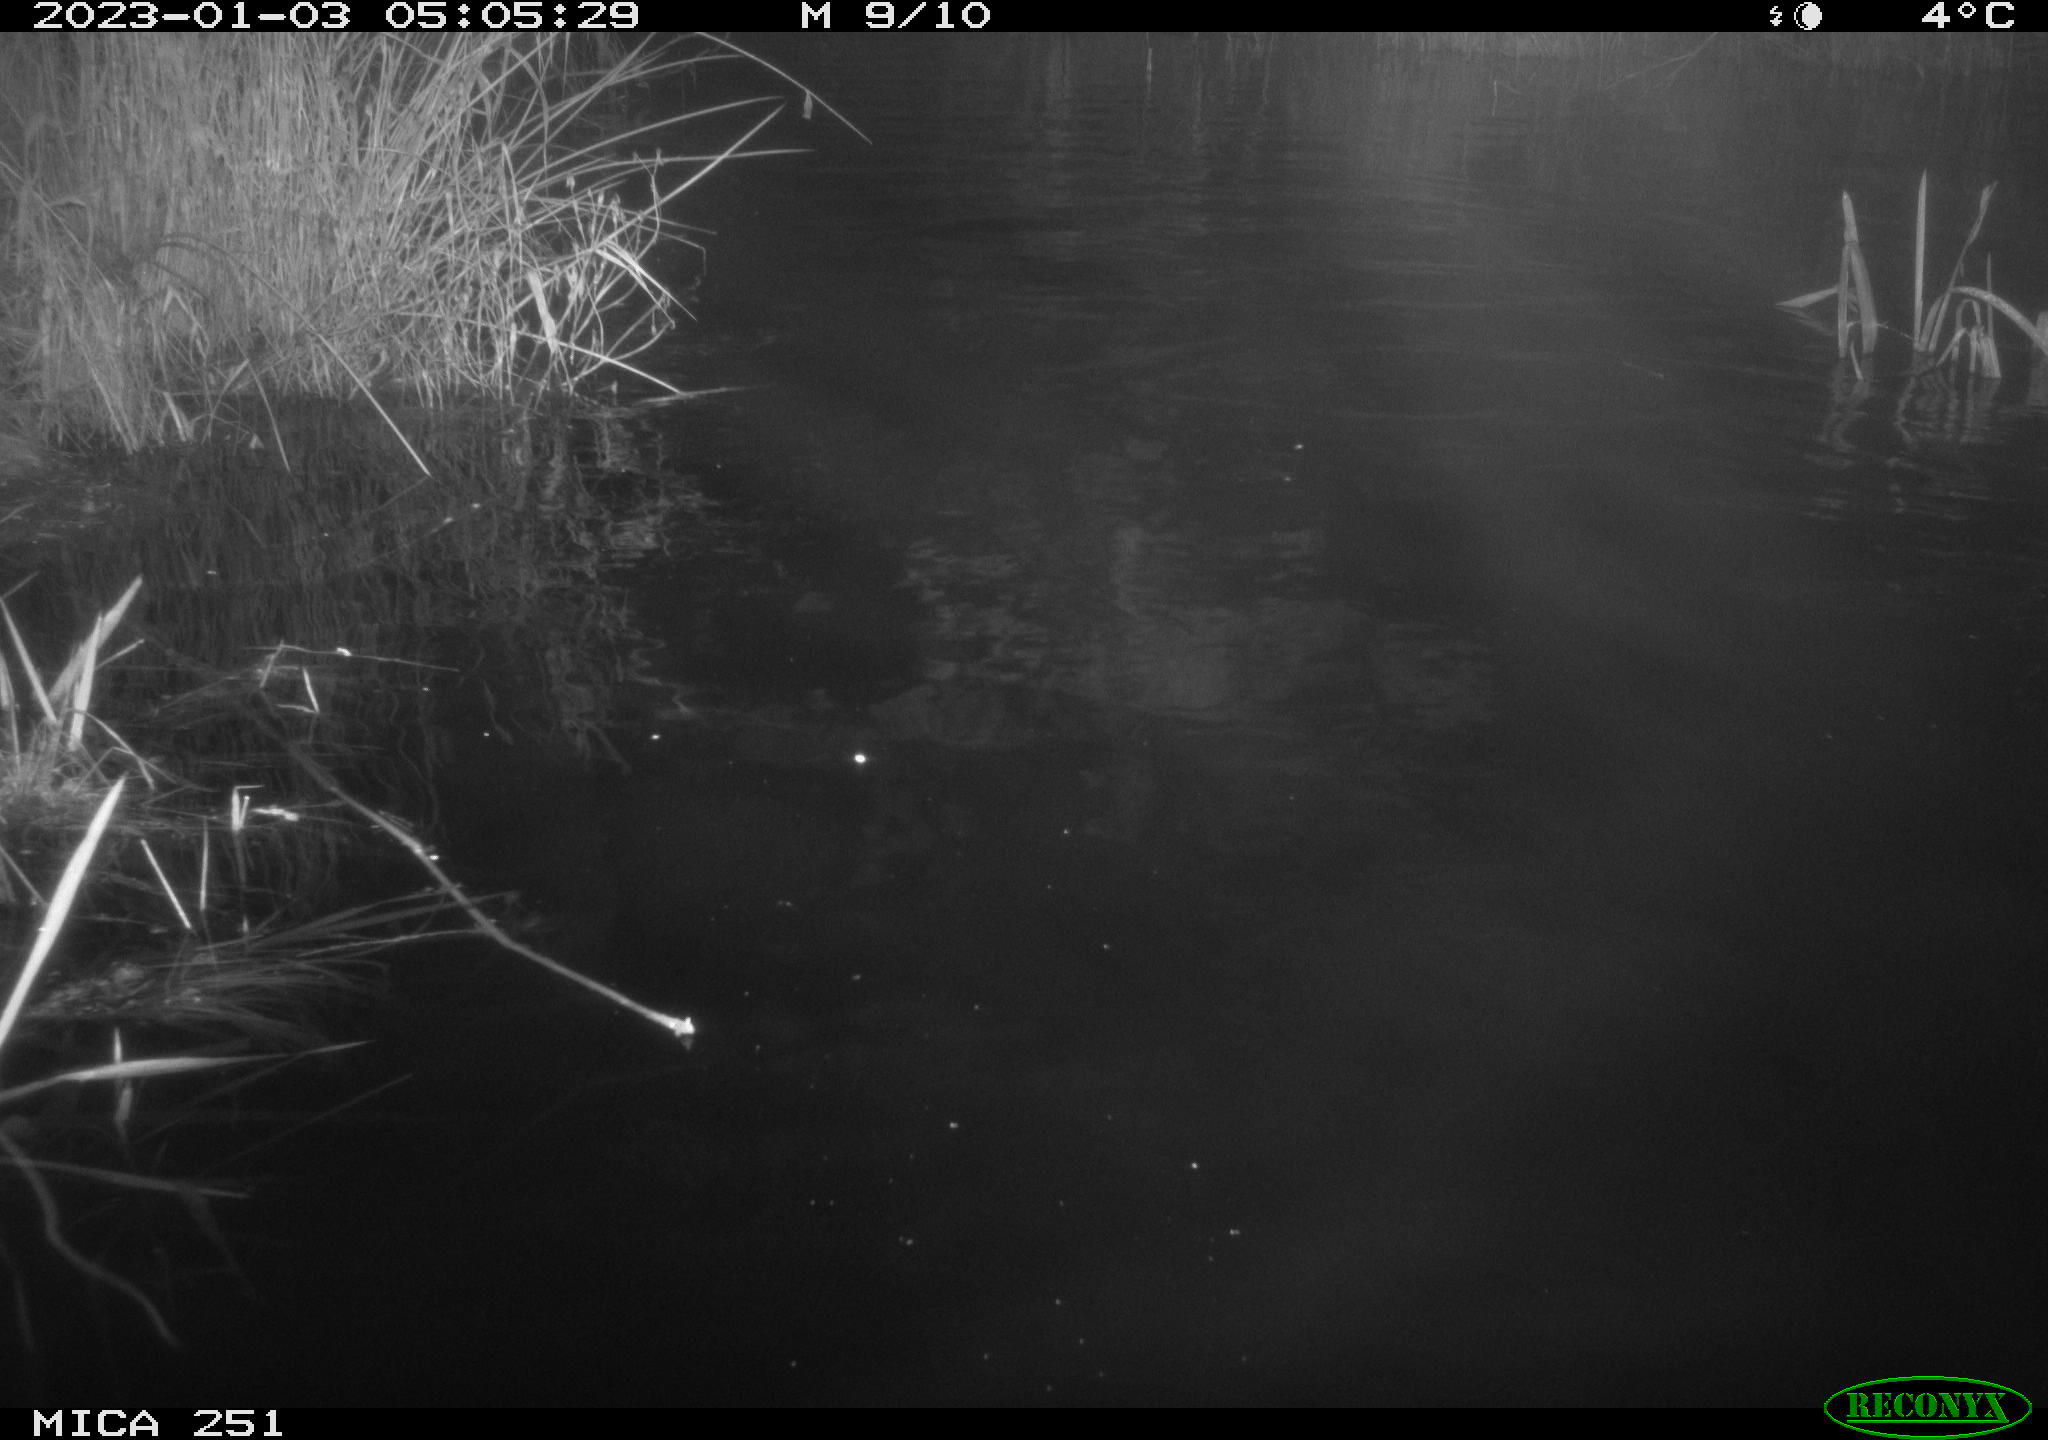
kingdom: Animalia
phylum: Chordata
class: Mammalia
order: Rodentia
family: Castoridae
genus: Castor
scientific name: Castor fiber
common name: Eurasian beaver
